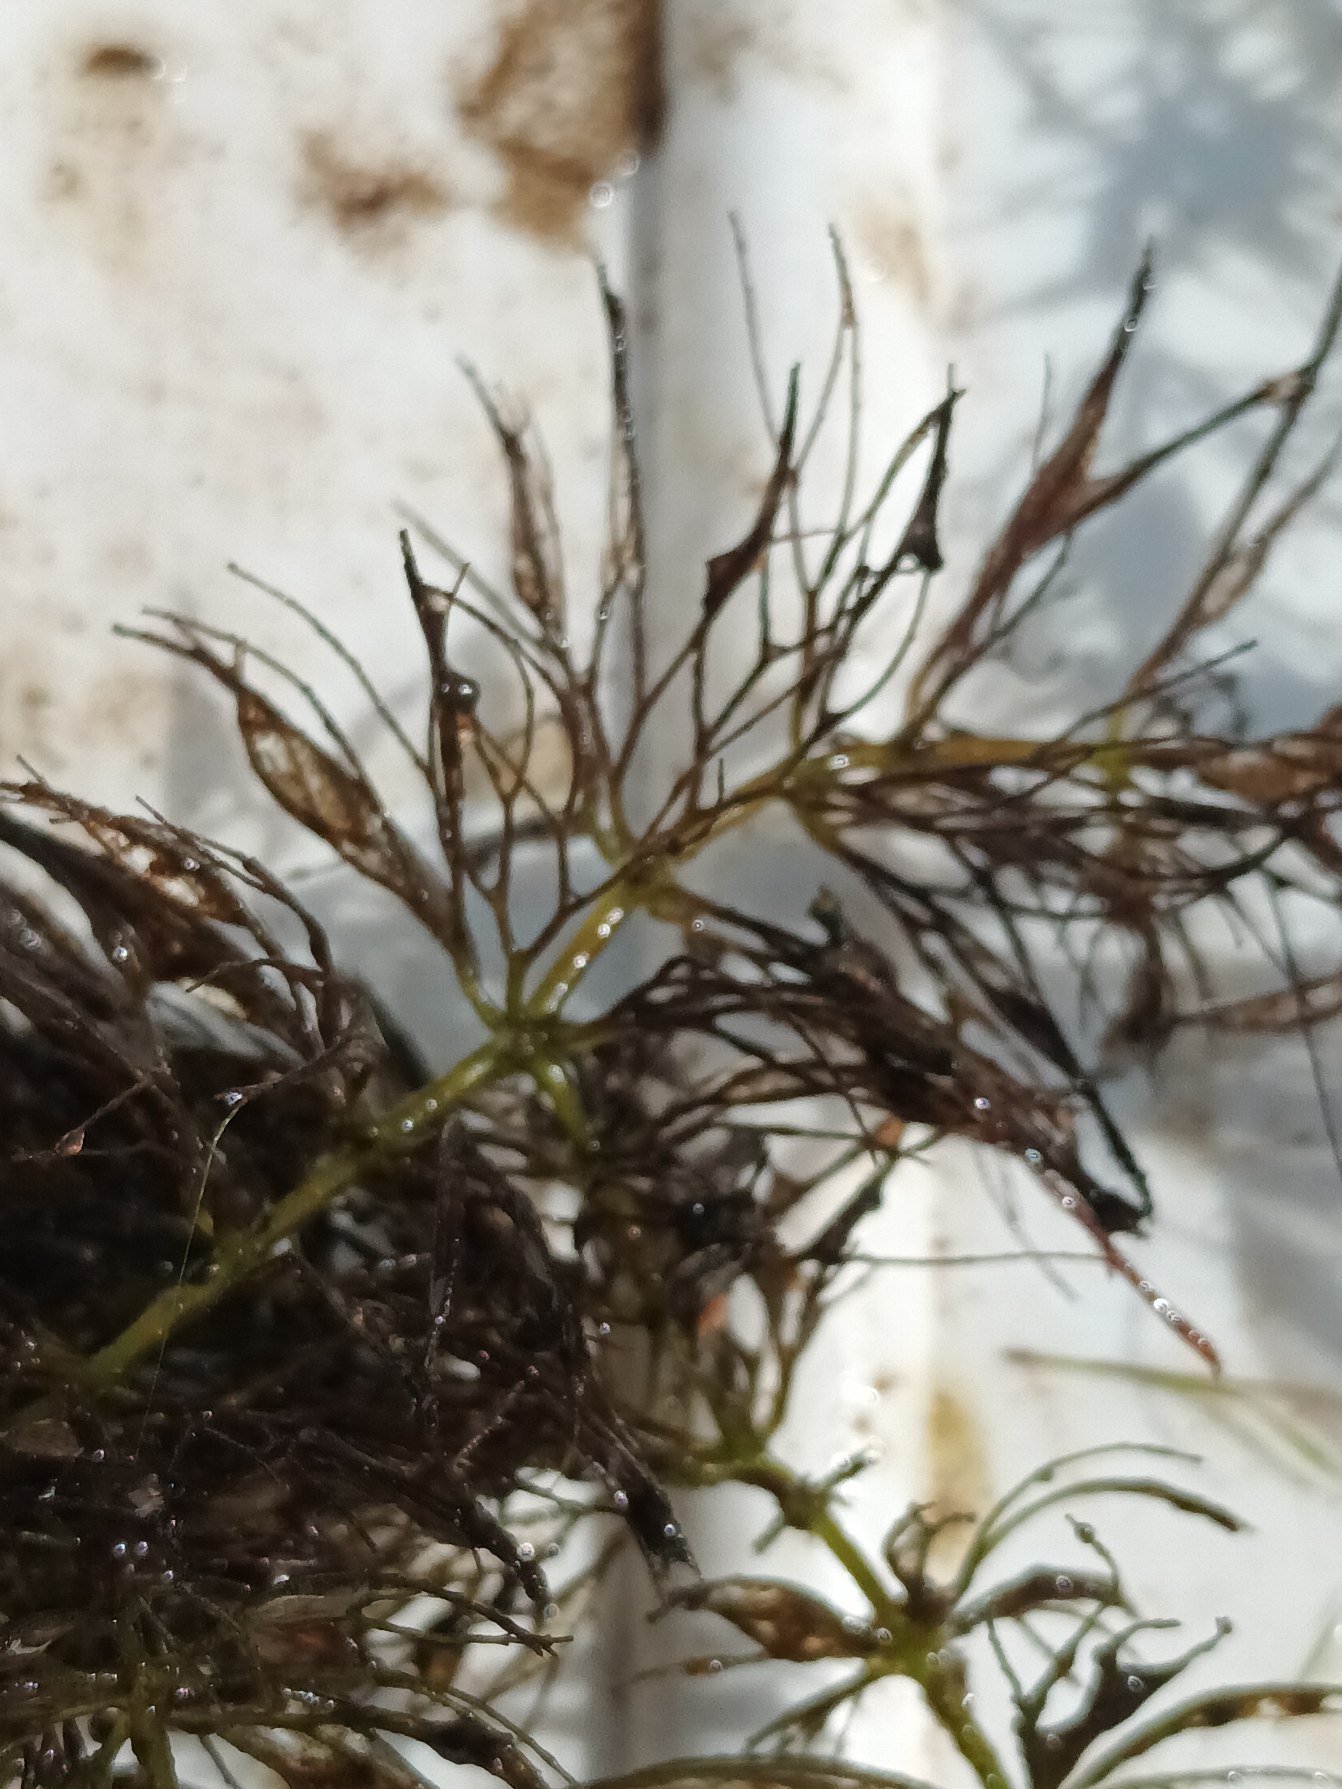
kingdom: Plantae
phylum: Tracheophyta
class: Magnoliopsida
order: Ceratophyllales
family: Ceratophyllaceae
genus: Ceratophyllum
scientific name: Ceratophyllum submersum
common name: Tornløs hornblad
